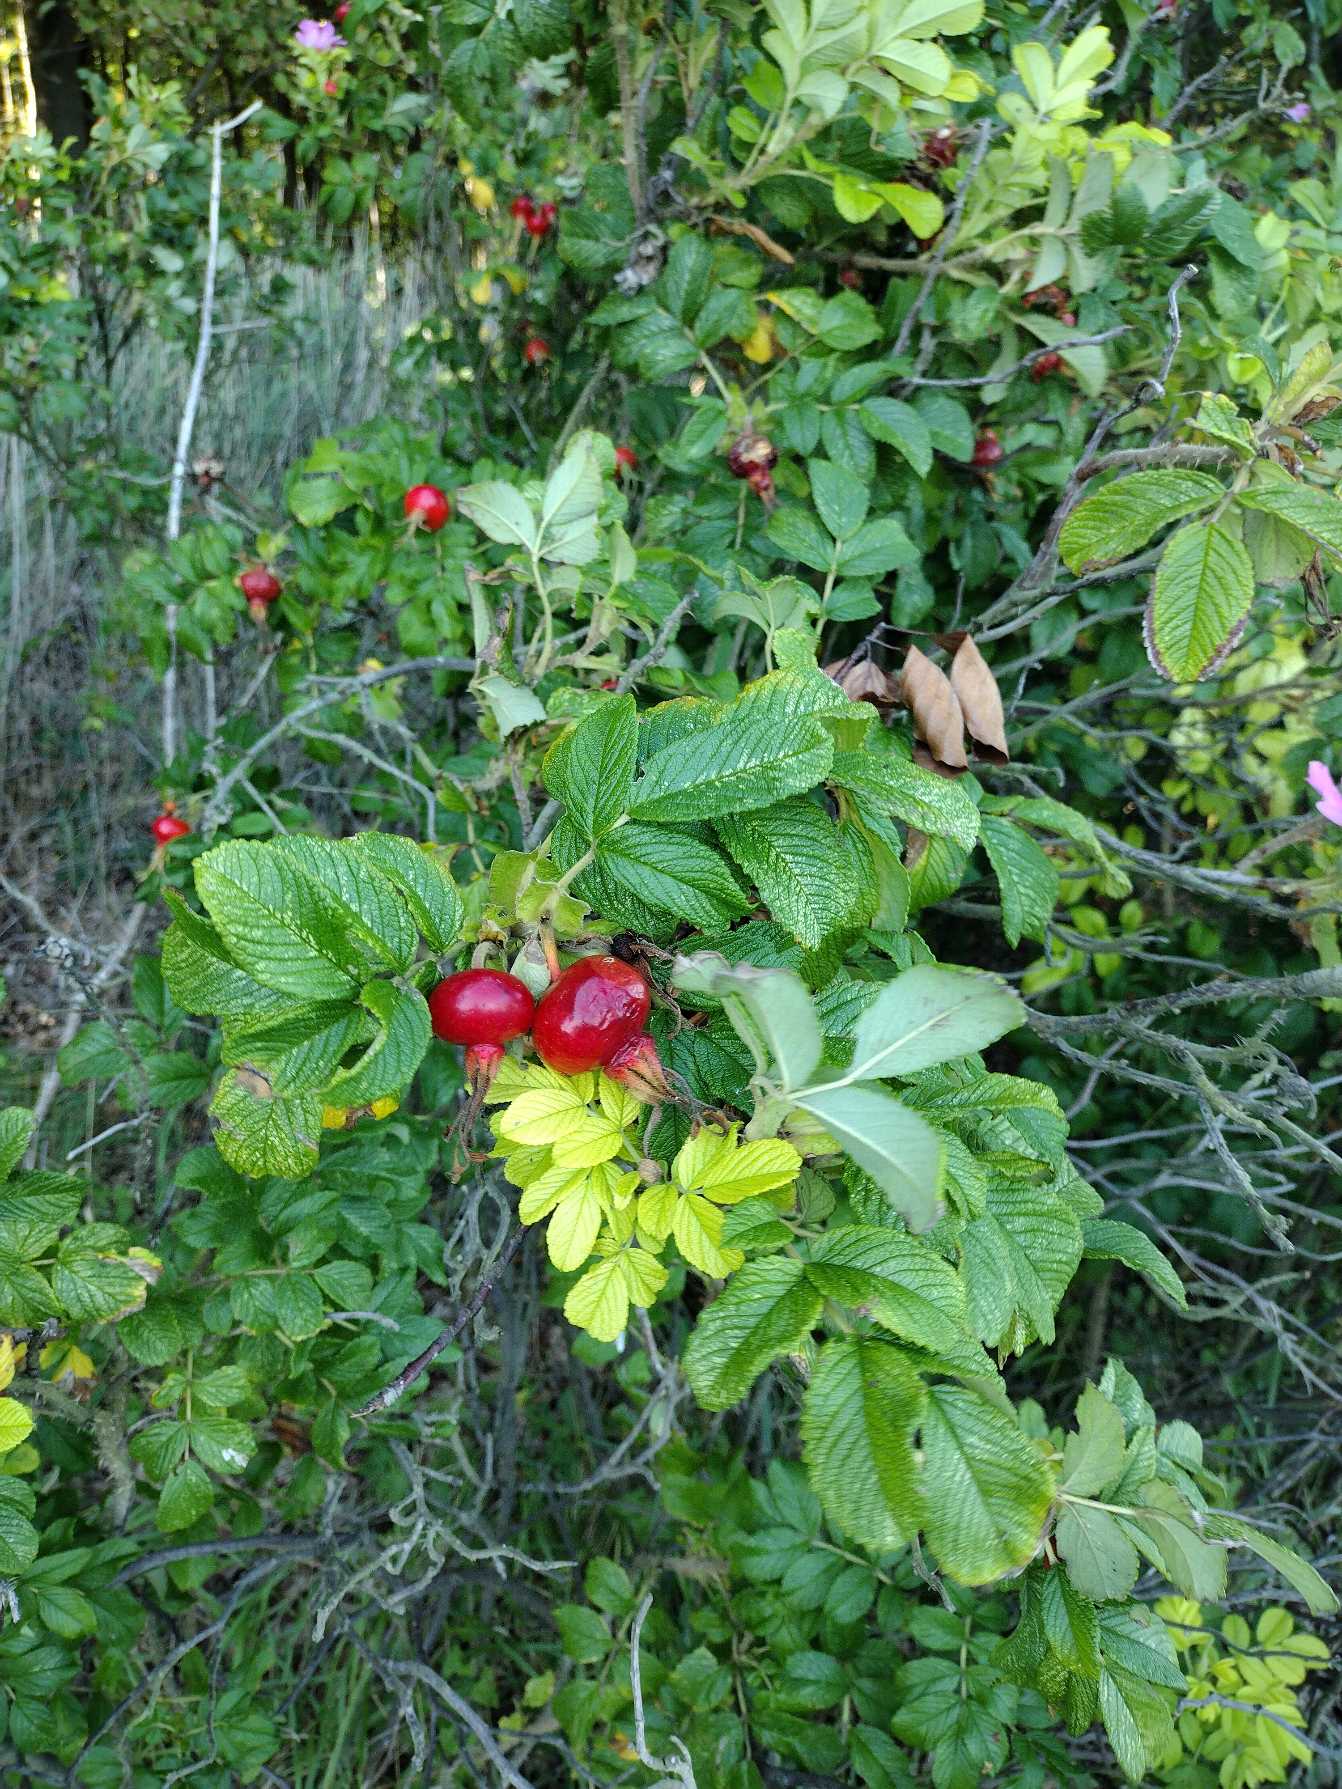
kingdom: Plantae
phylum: Tracheophyta
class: Magnoliopsida
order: Rosales
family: Rosaceae
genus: Rosa
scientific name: Rosa rugosa
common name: Rynket rose
